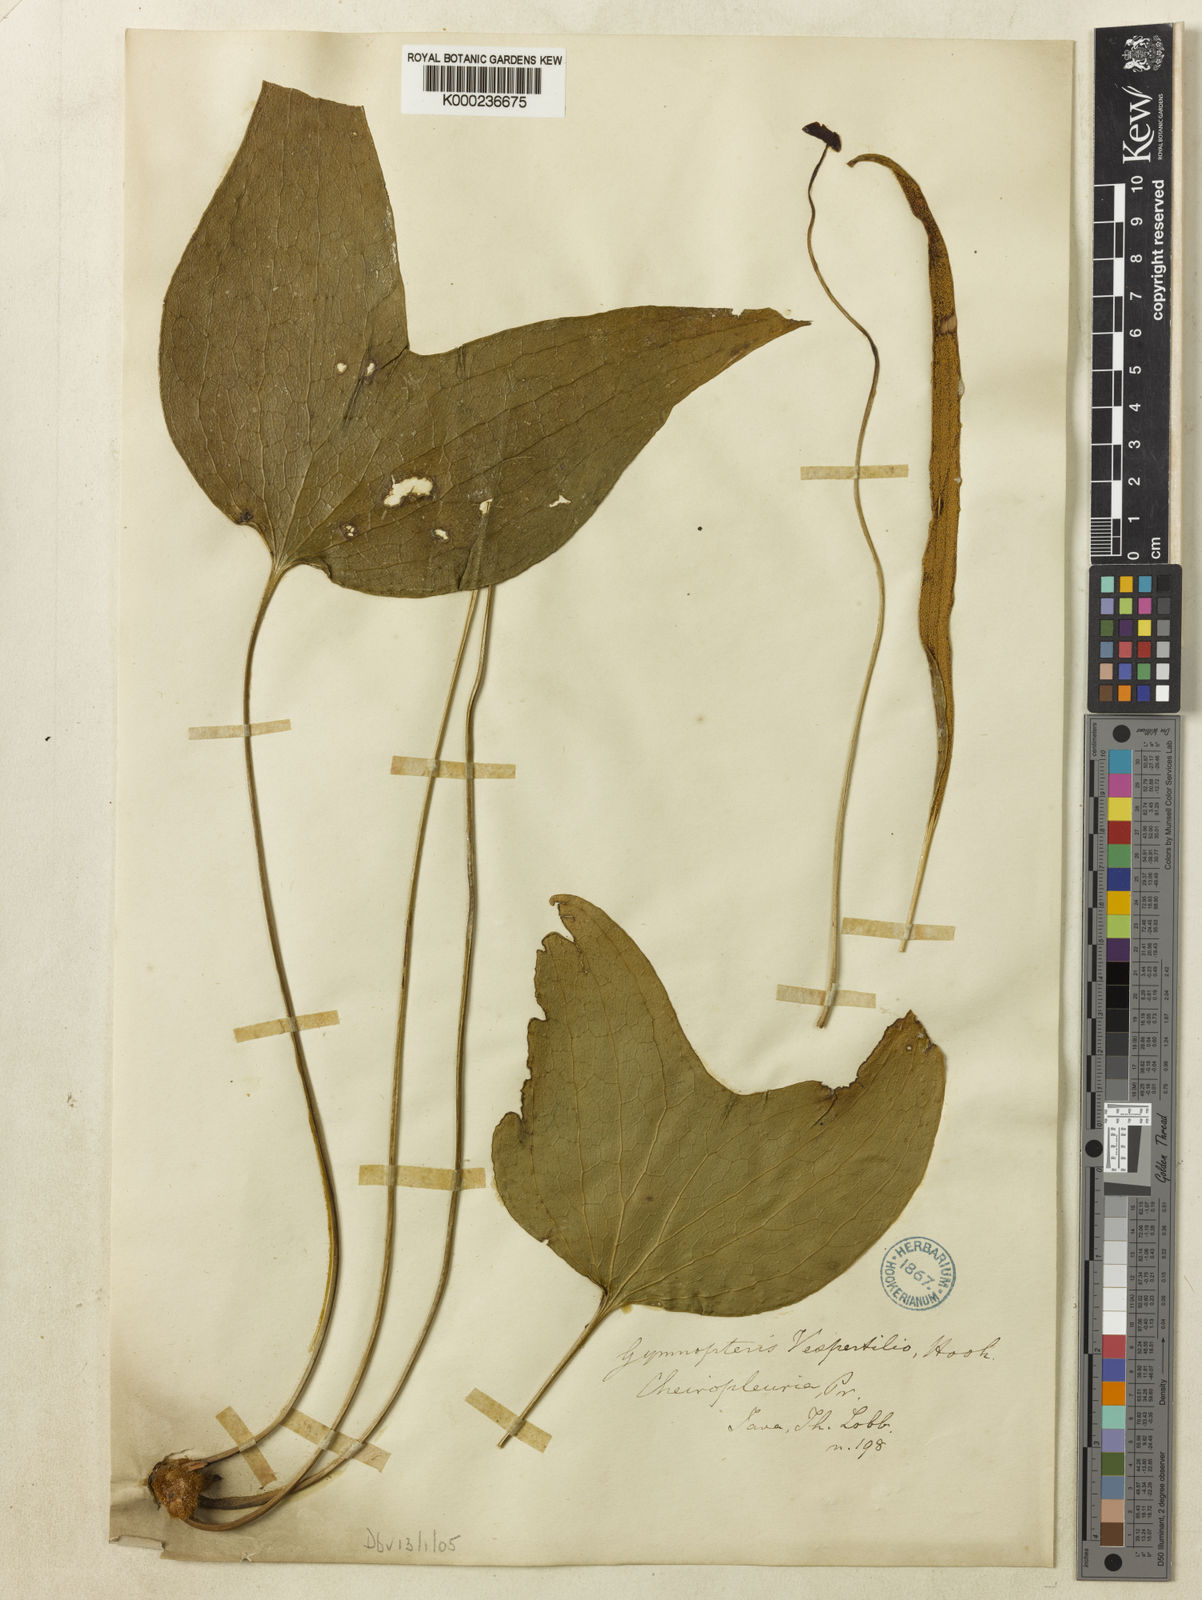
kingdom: Plantae
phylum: Tracheophyta
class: Polypodiopsida
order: Gleicheniales
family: Dipteridaceae
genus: Cheiropleuria
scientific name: Cheiropleuria bicuspis
